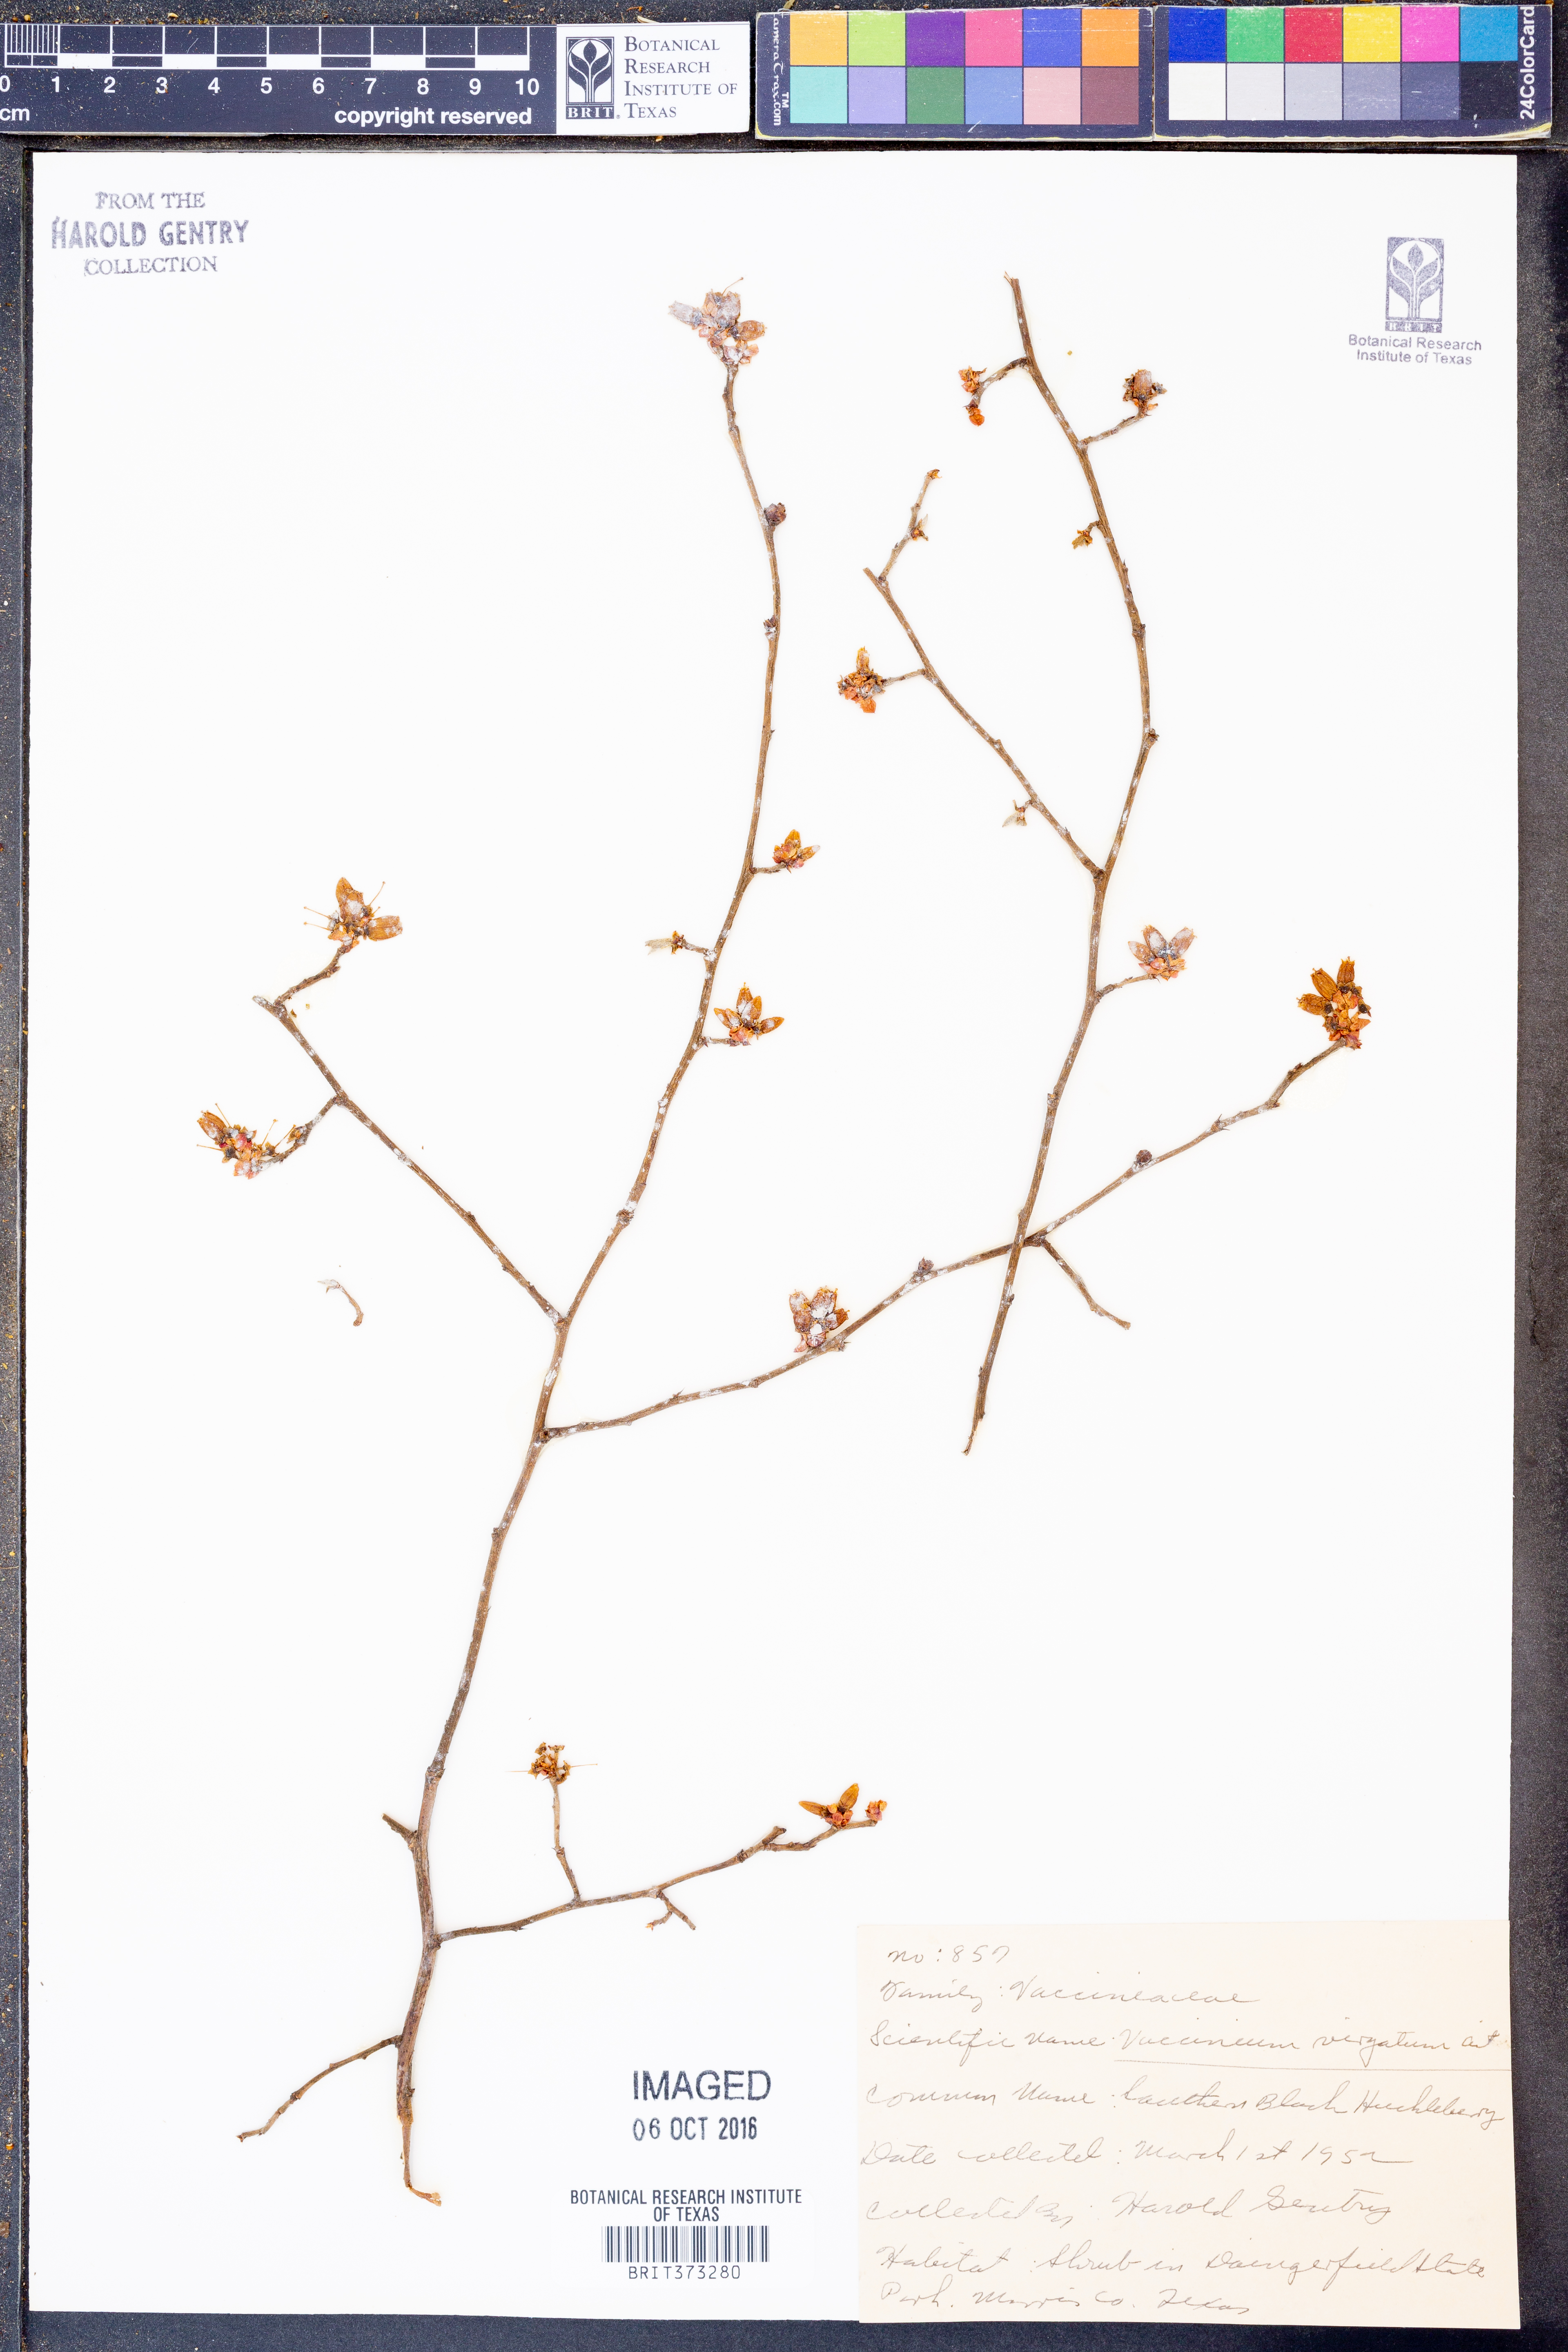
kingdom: Plantae
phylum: Tracheophyta
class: Magnoliopsida
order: Ericales
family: Ericaceae
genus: Vaccinium
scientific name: Vaccinium corymbosum
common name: Blueberry
